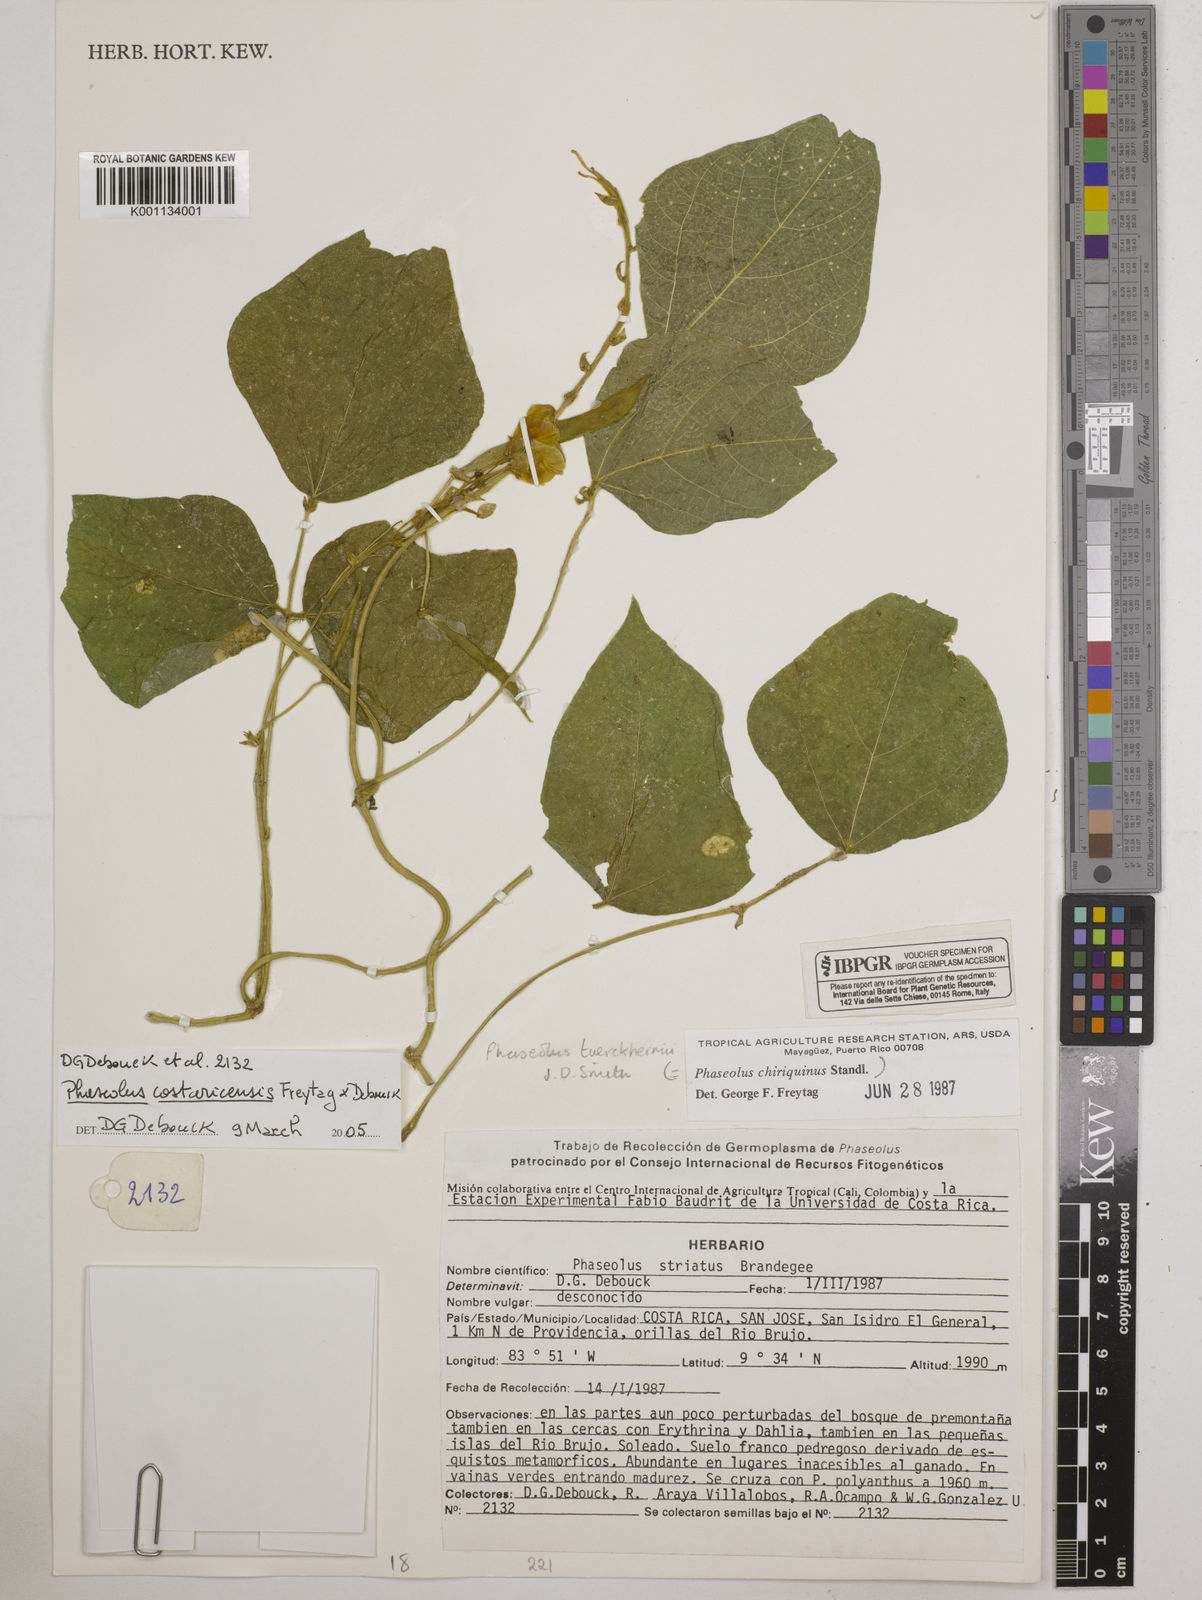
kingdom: Plantae
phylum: Tracheophyta
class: Magnoliopsida
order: Fabales
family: Fabaceae
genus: Phaseolus
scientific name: Phaseolus costaricensis
